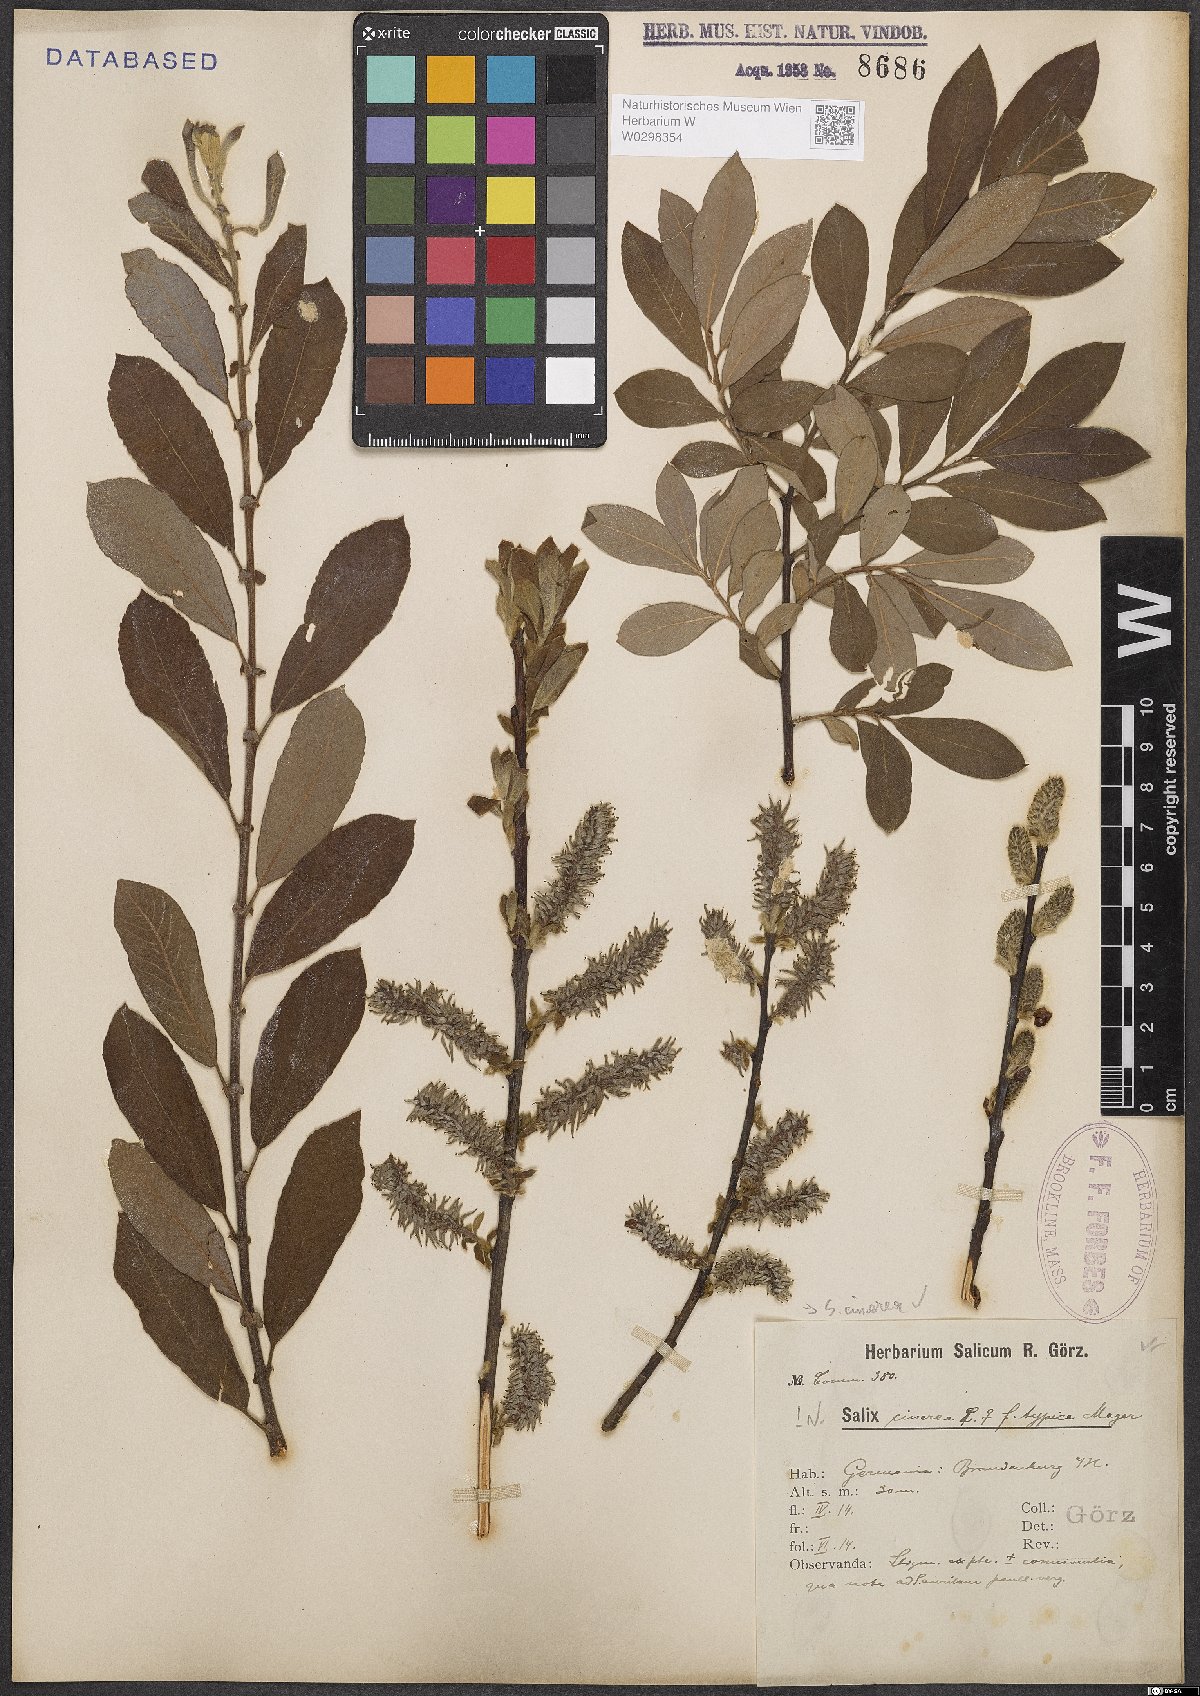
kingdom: Plantae
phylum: Tracheophyta
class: Magnoliopsida
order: Malpighiales
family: Salicaceae
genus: Salix
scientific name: Salix cinerea
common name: Common sallow
